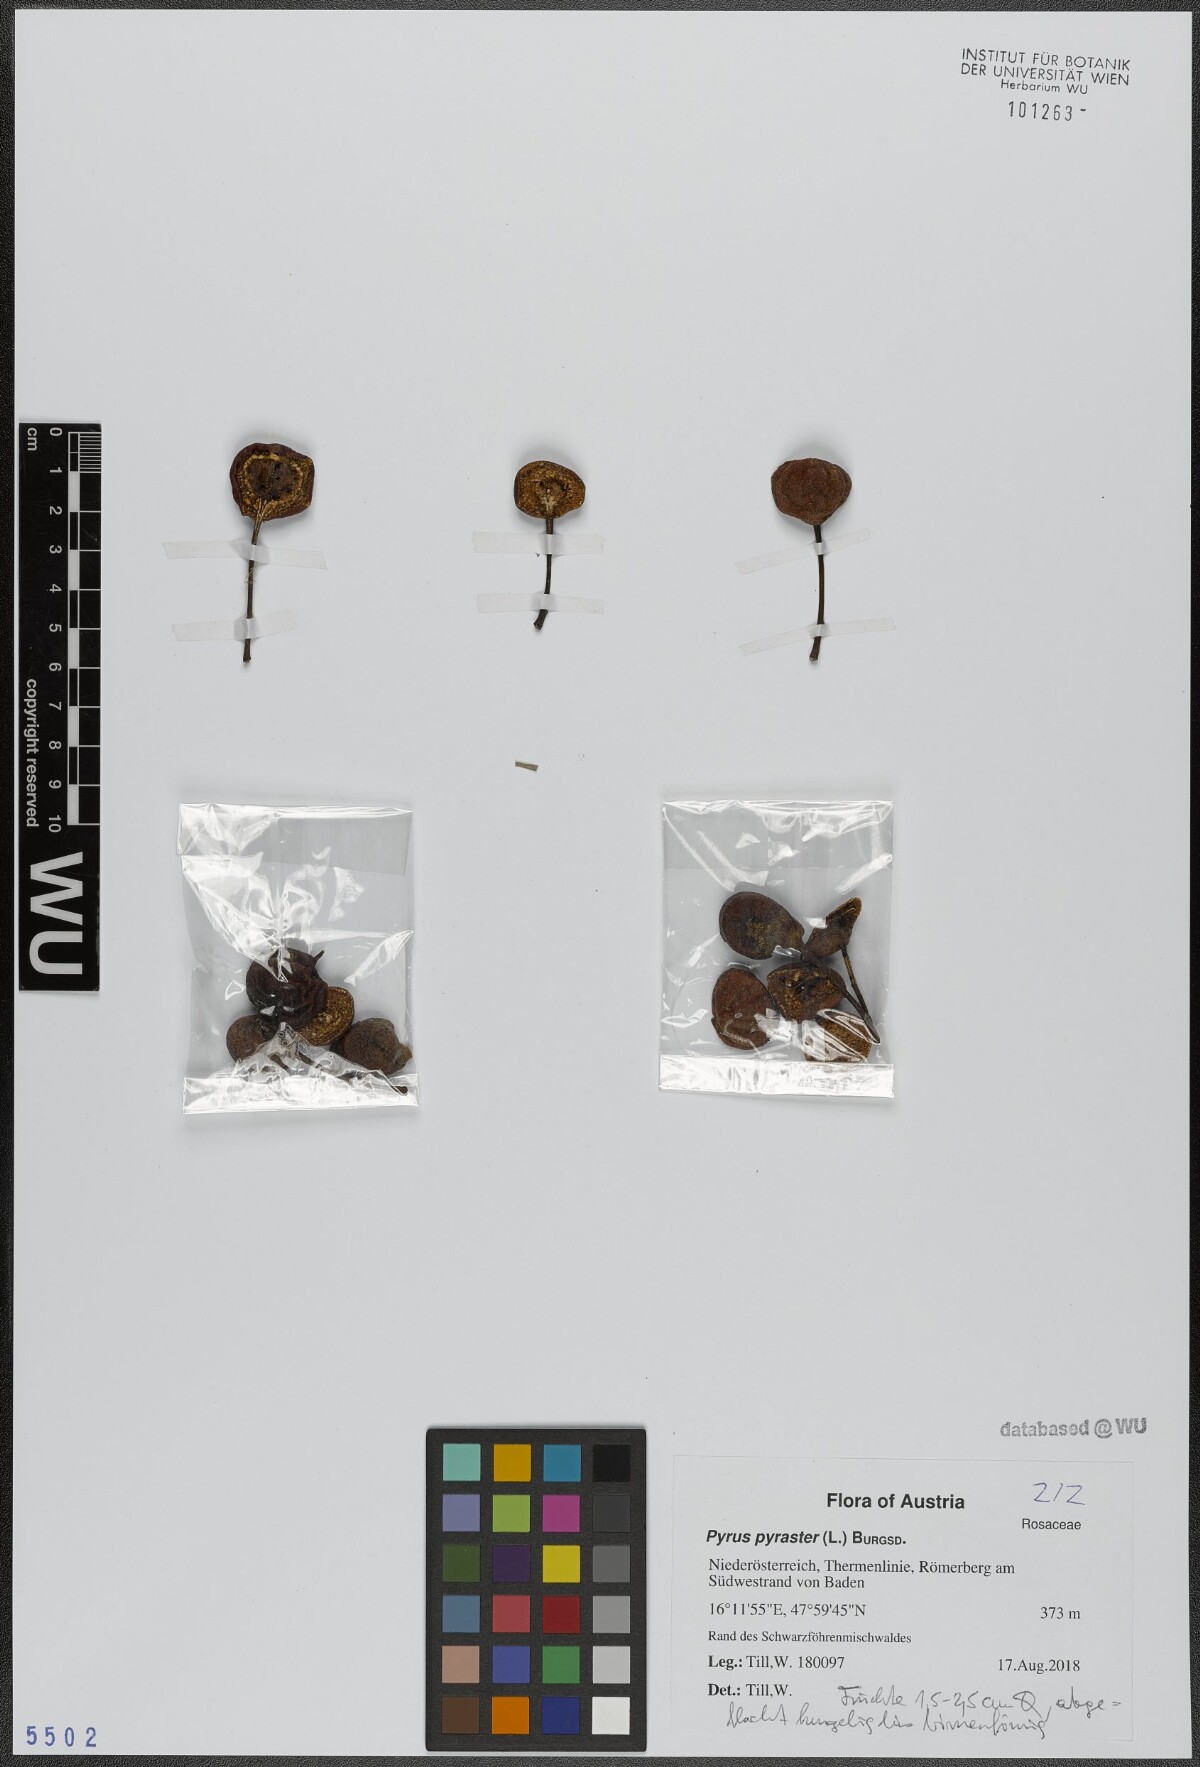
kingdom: Plantae
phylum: Tracheophyta
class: Magnoliopsida
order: Rosales
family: Rosaceae
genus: Pyrus
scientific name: Pyrus pyraster
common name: Wild pear
